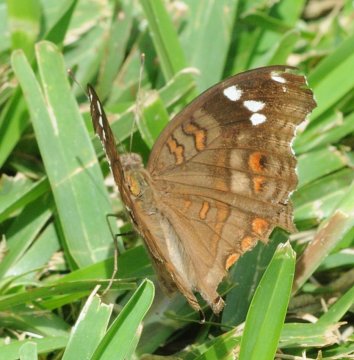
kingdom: Animalia
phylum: Arthropoda
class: Insecta
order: Lepidoptera
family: Nymphalidae
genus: Junonia
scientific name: Junonia natalica
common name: Natal Pansy
